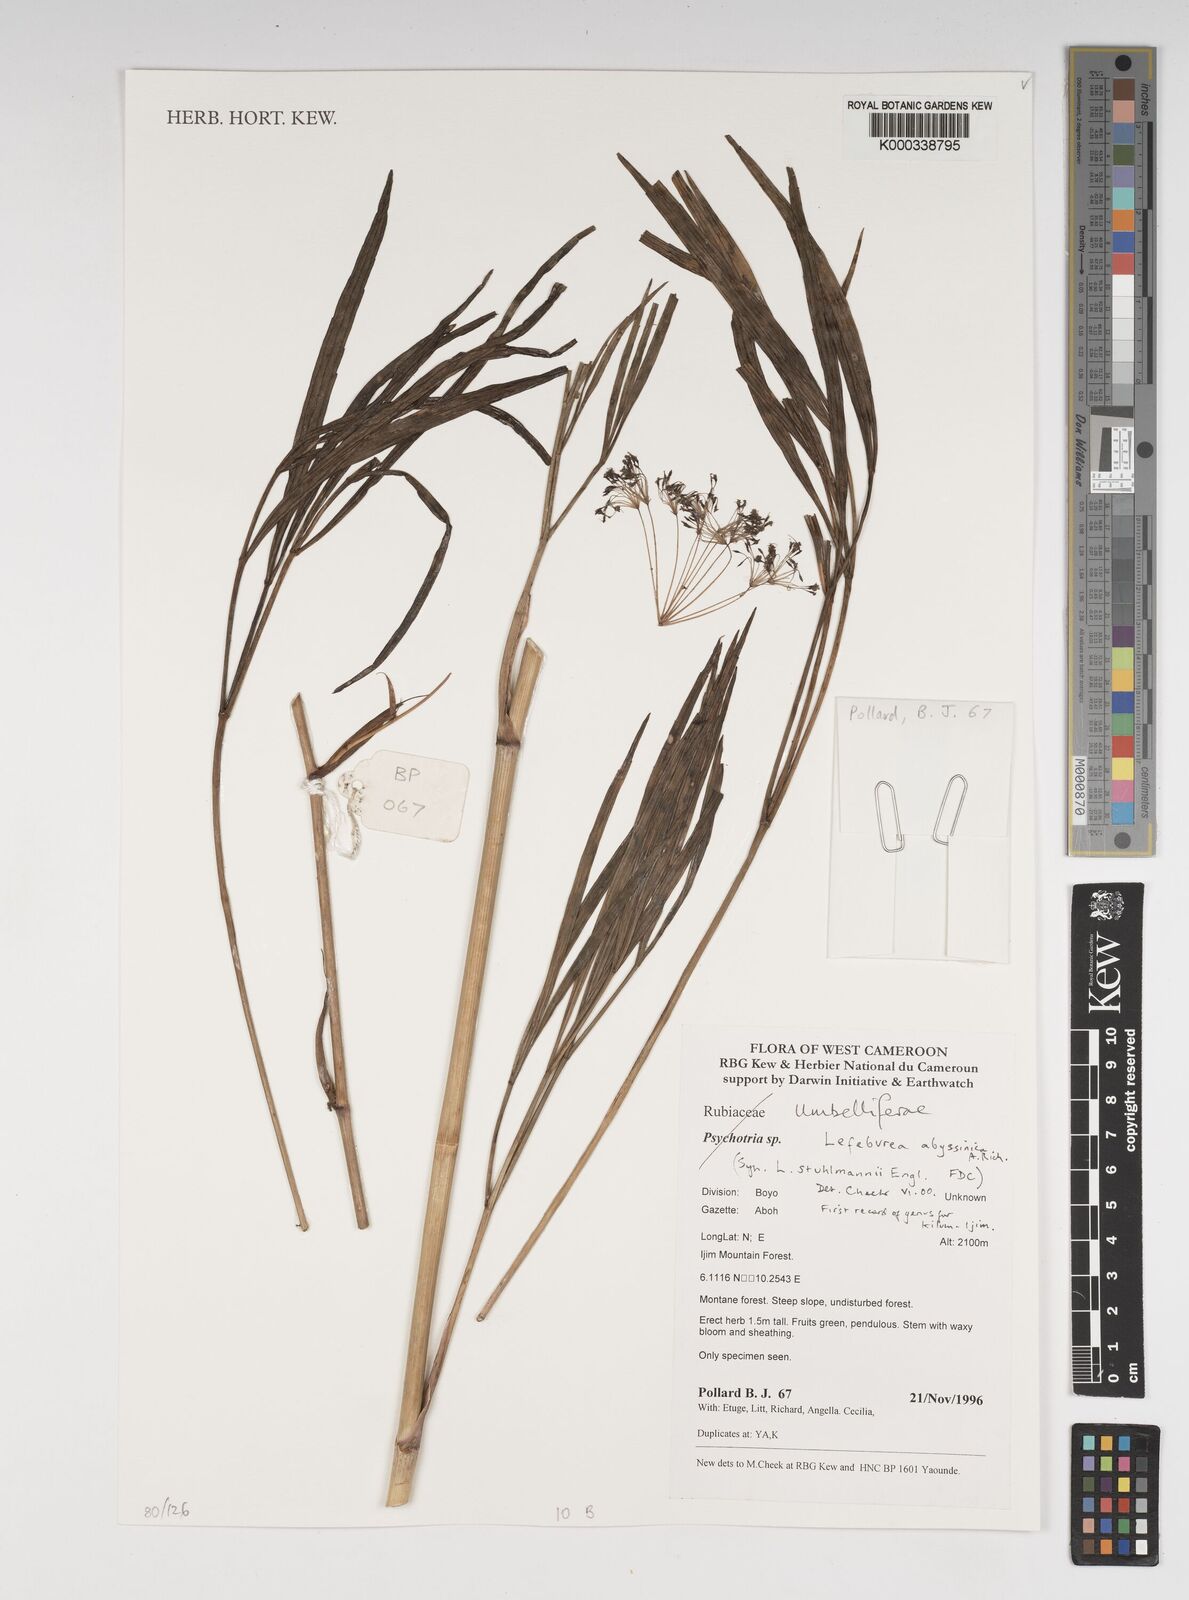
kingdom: Plantae
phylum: Tracheophyta
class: Magnoliopsida
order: Apiales
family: Apiaceae
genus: Lefebvrea
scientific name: Lefebvrea abyssinica
